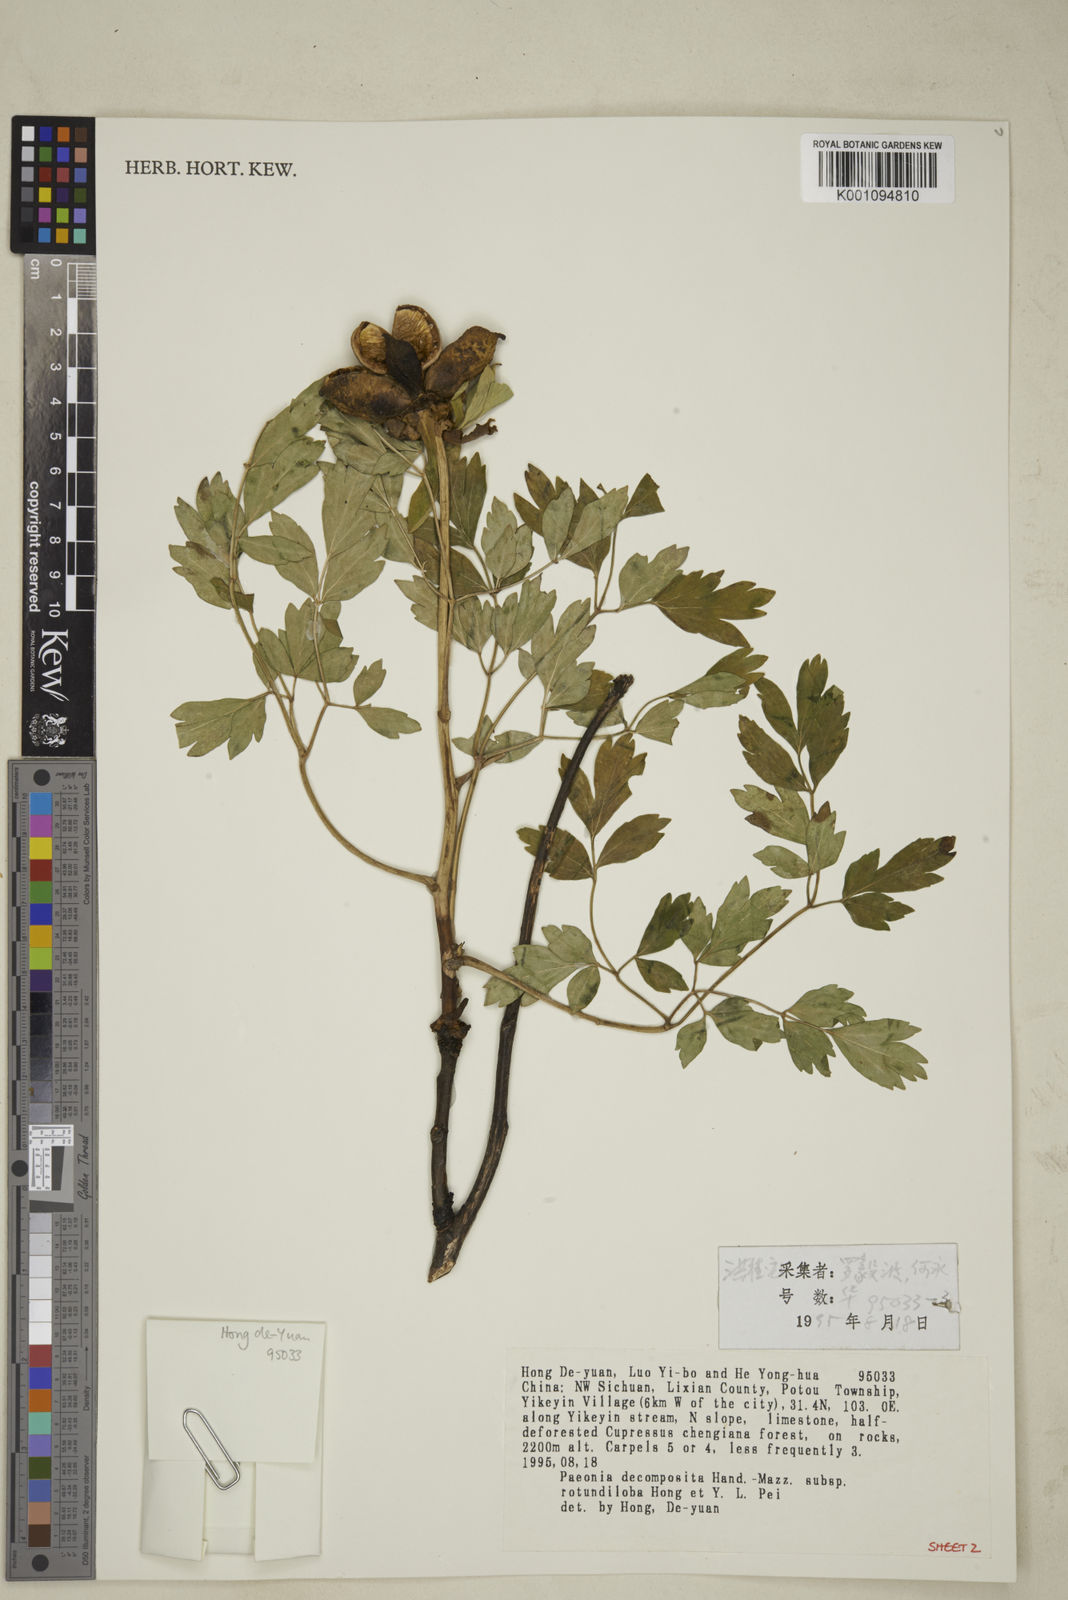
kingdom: Plantae
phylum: Tracheophyta
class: Magnoliopsida
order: Saxifragales
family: Paeoniaceae
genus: Paeonia
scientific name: Paeonia suffruticosa
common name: Moutan peony
